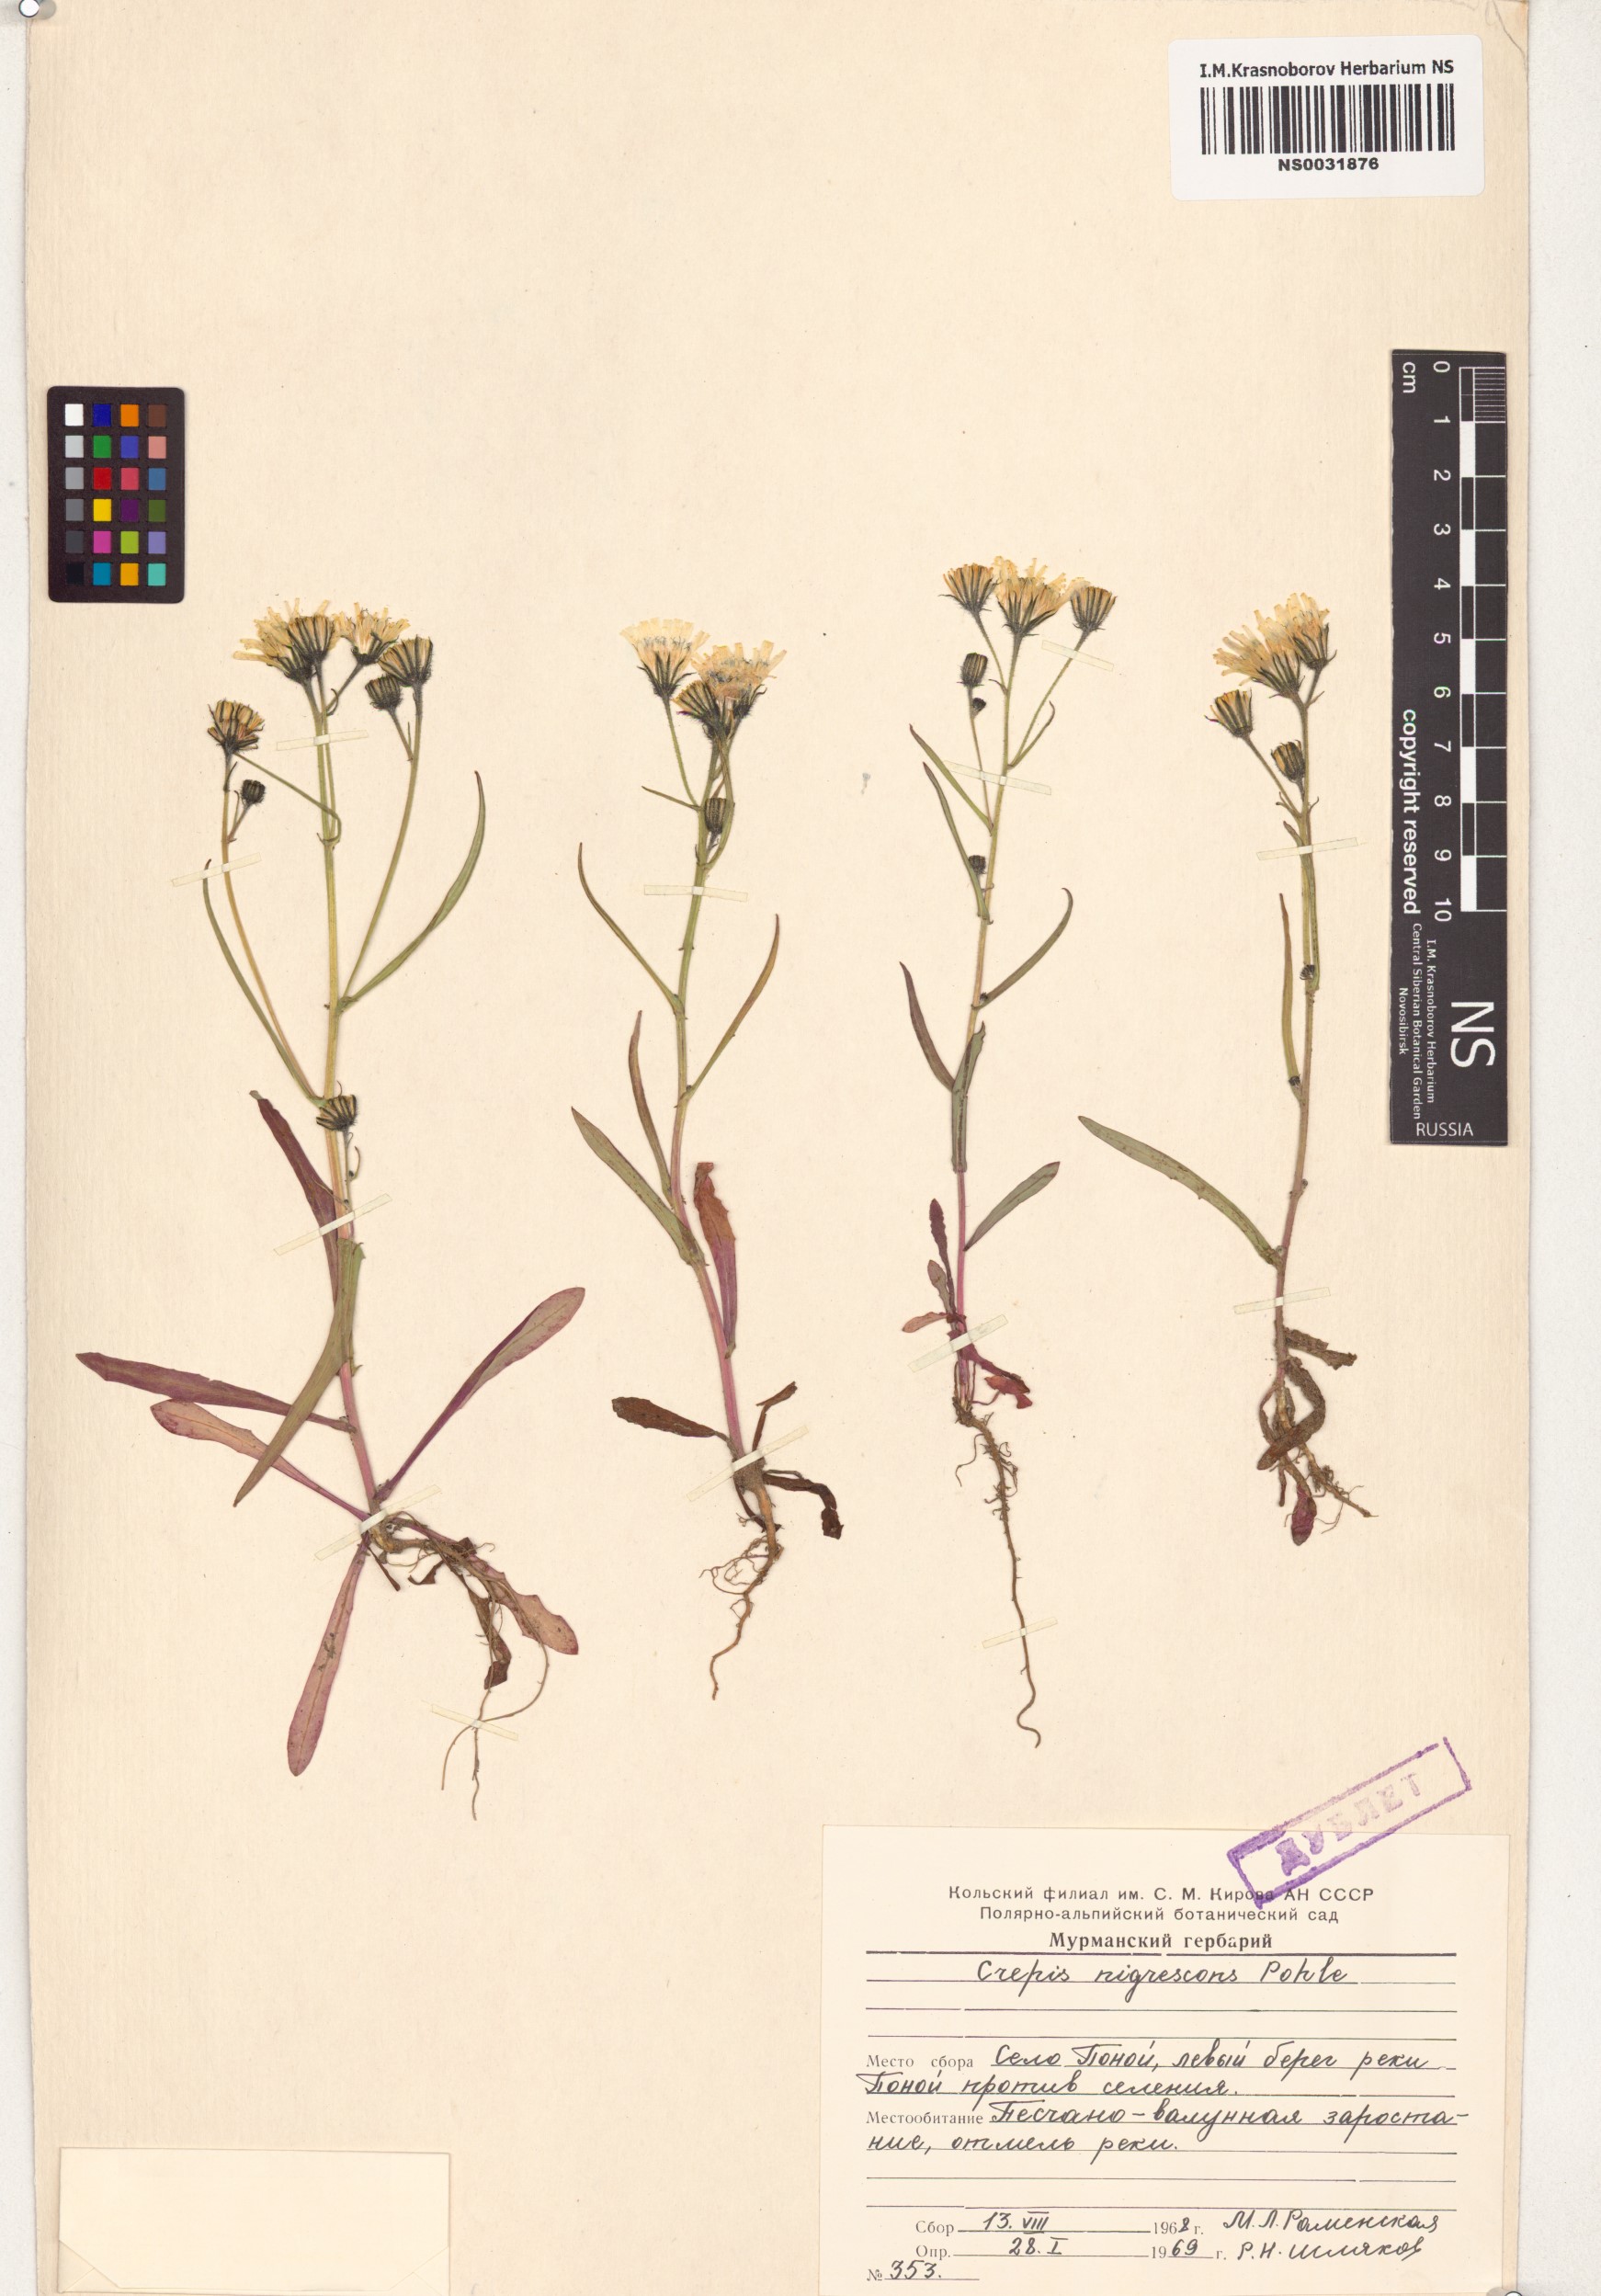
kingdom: Plantae
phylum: Tracheophyta
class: Magnoliopsida
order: Asterales
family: Asteraceae
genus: Crepis
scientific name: Crepis nigrescens
